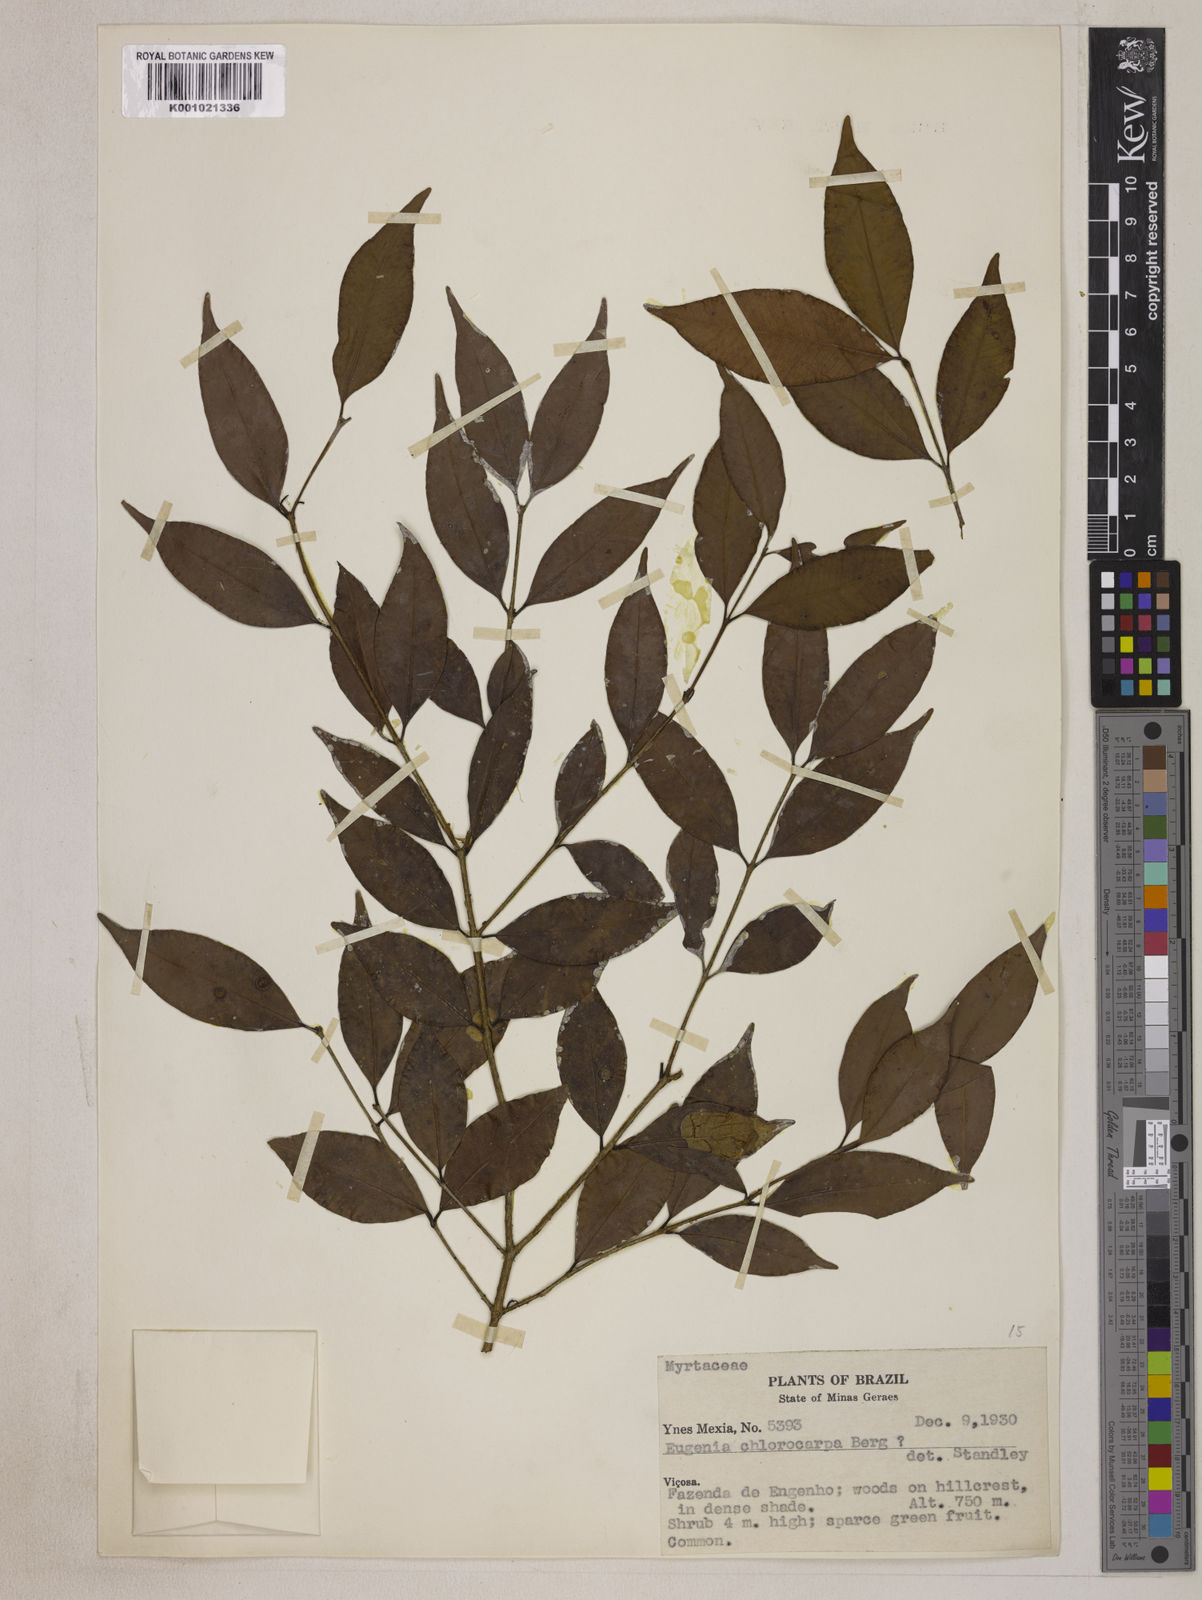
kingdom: Plantae
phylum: Tracheophyta
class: Magnoliopsida
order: Myrtales
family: Myrtaceae
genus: Eugenia
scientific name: Eugenia chlorocarpa
